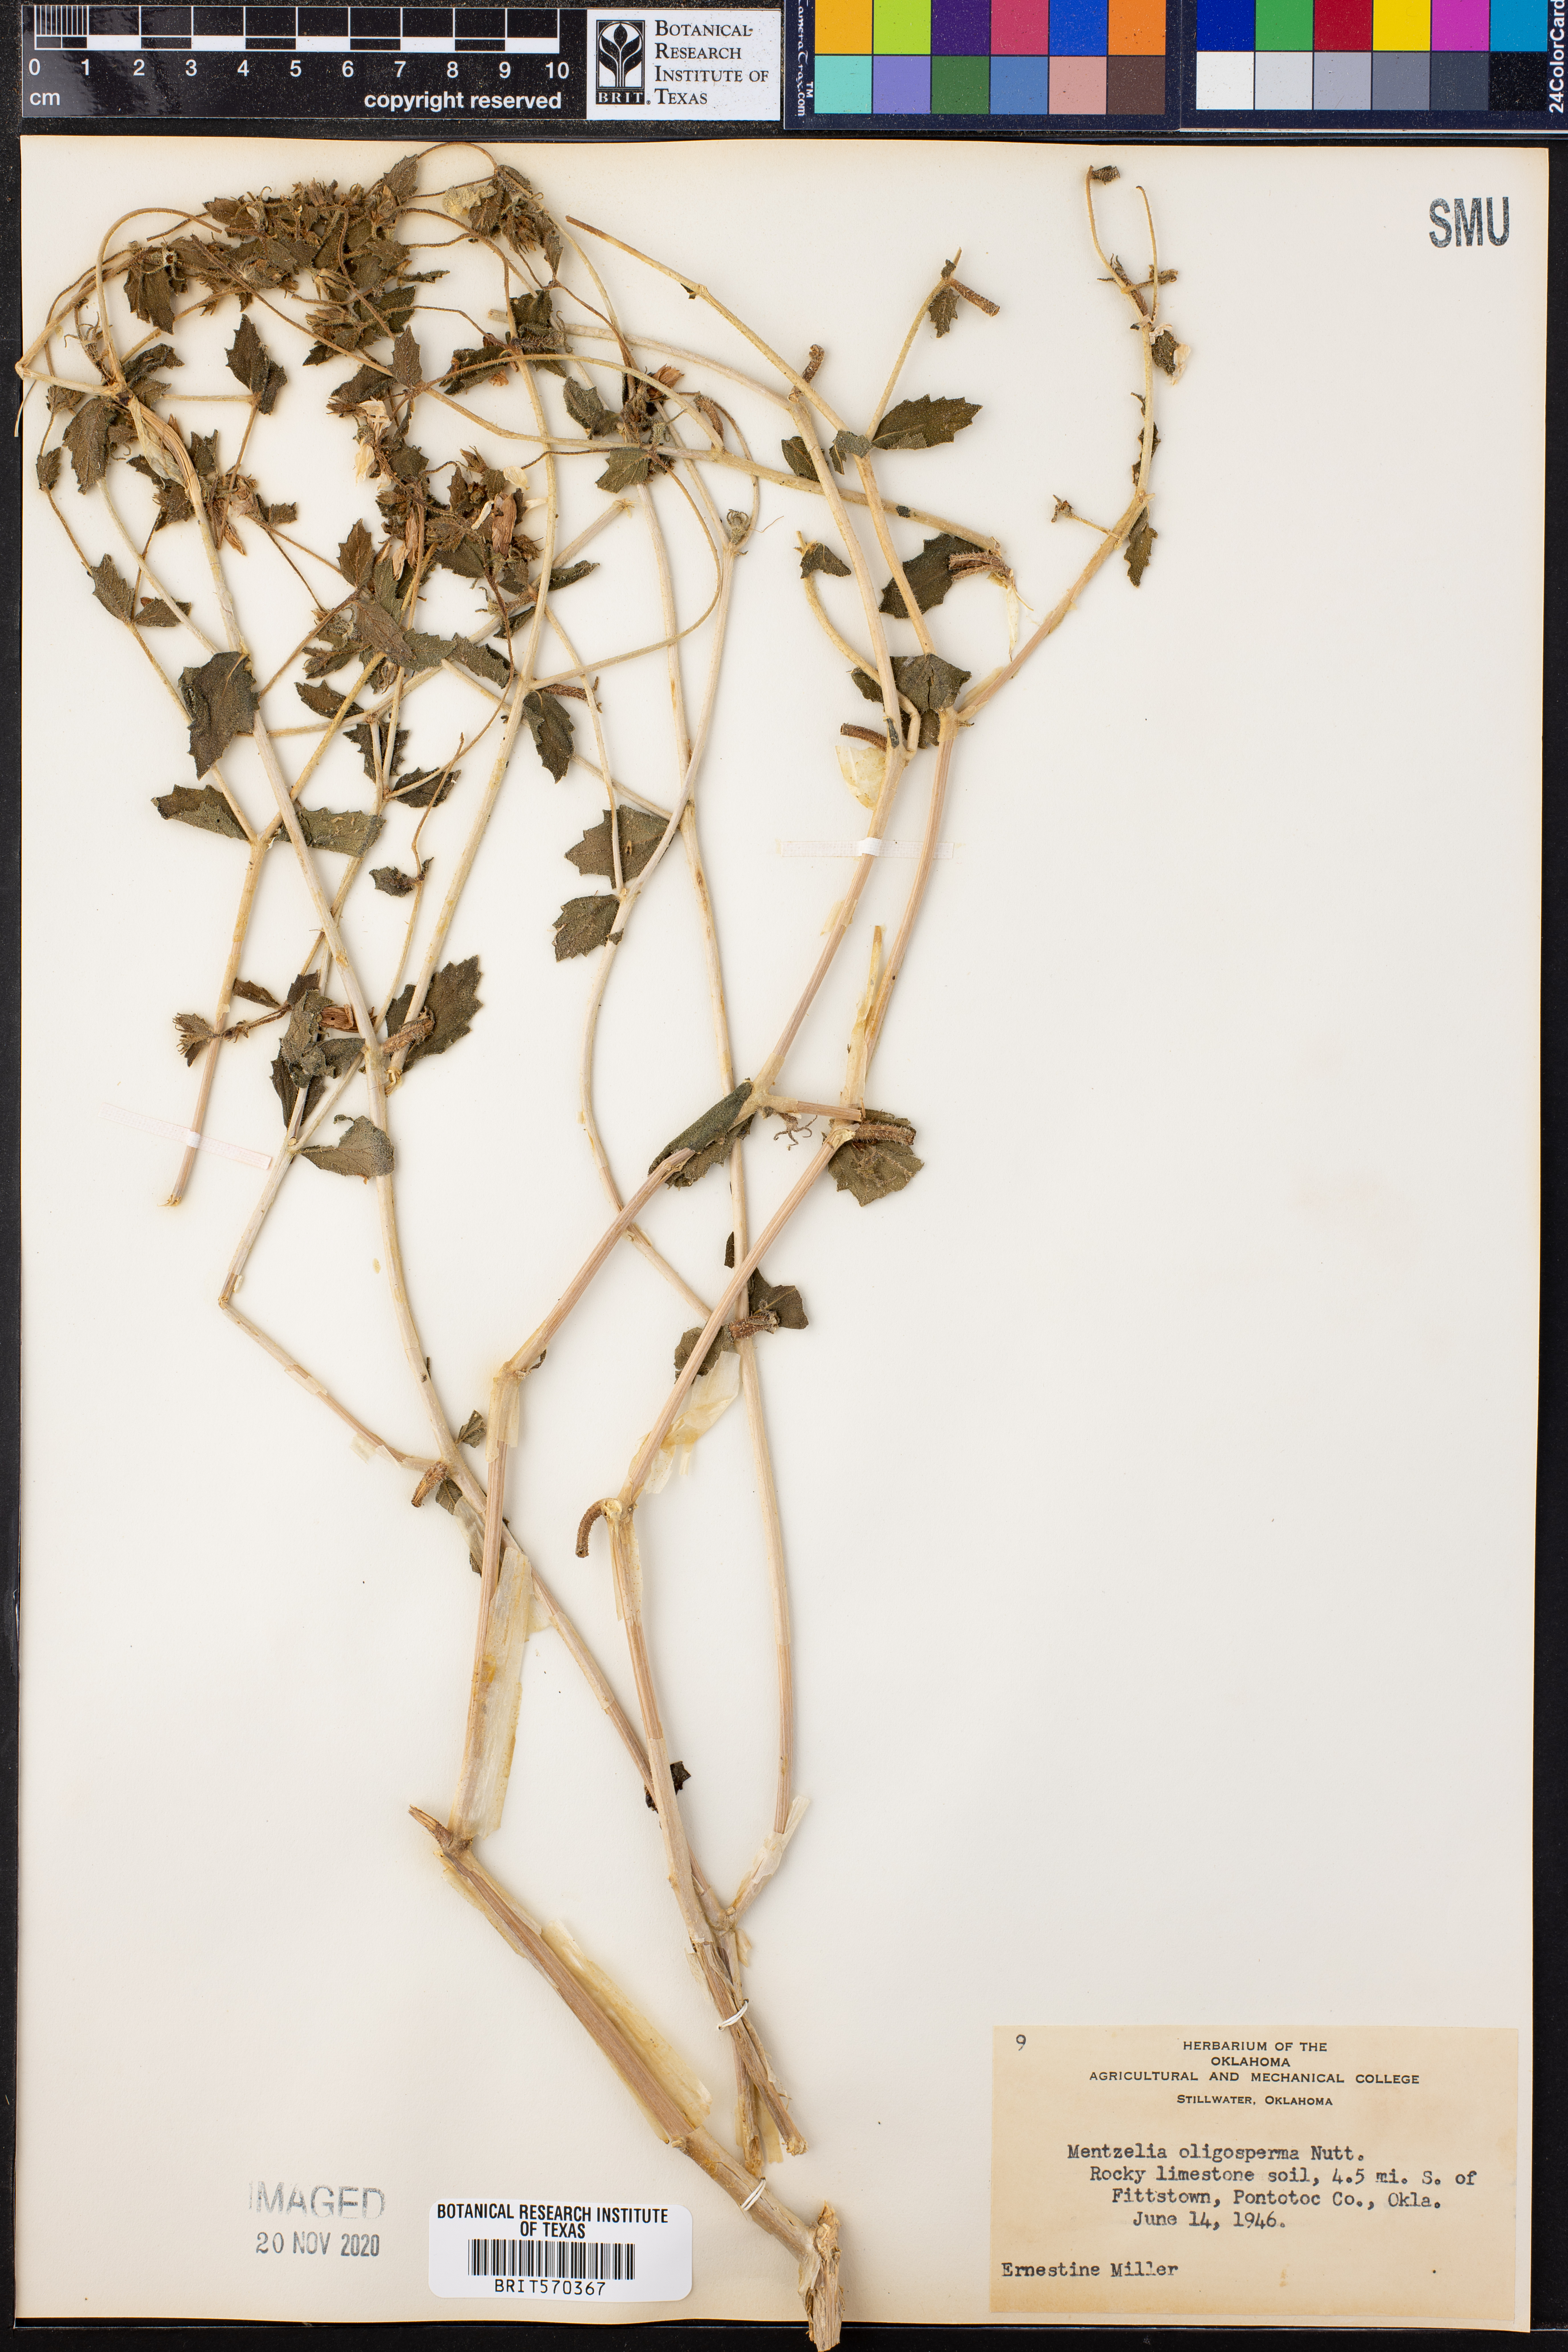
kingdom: Plantae
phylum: Tracheophyta
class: Magnoliopsida
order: Cornales
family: Loasaceae
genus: Mentzelia
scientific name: Mentzelia oligosperma
